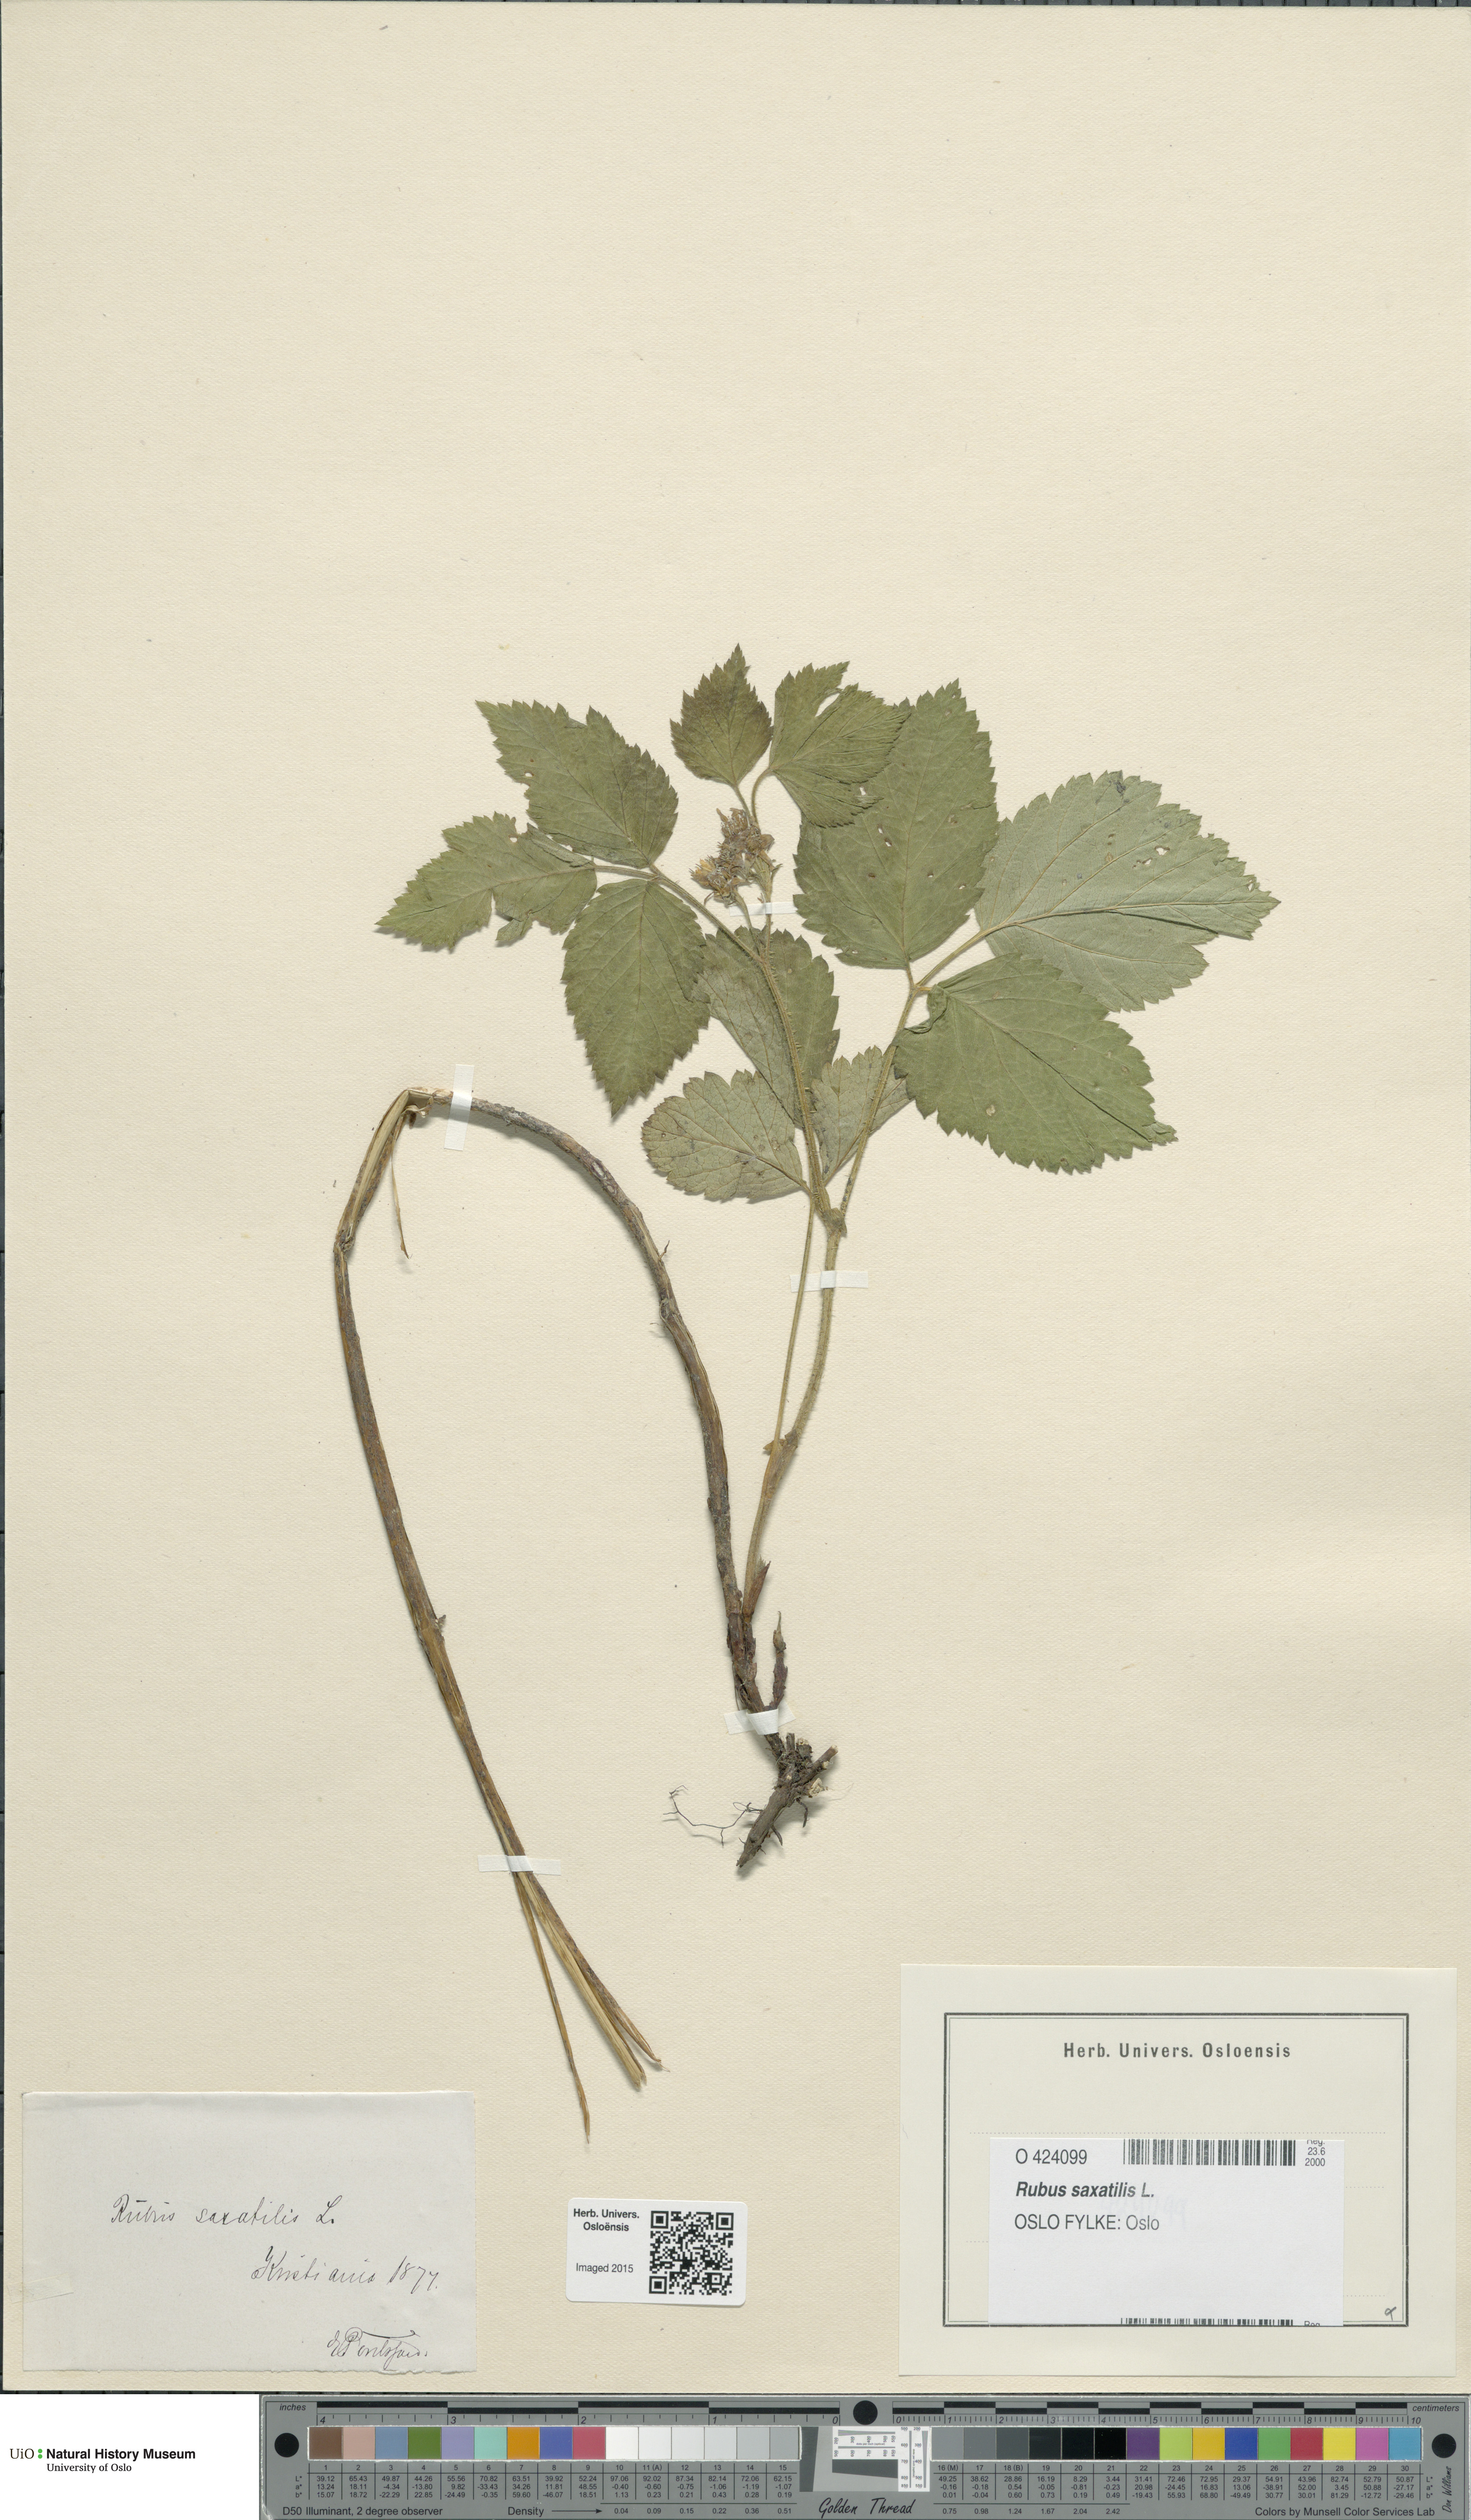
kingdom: Plantae
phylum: Tracheophyta
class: Magnoliopsida
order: Rosales
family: Rosaceae
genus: Rubus
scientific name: Rubus saxatilis
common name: Stone bramble
